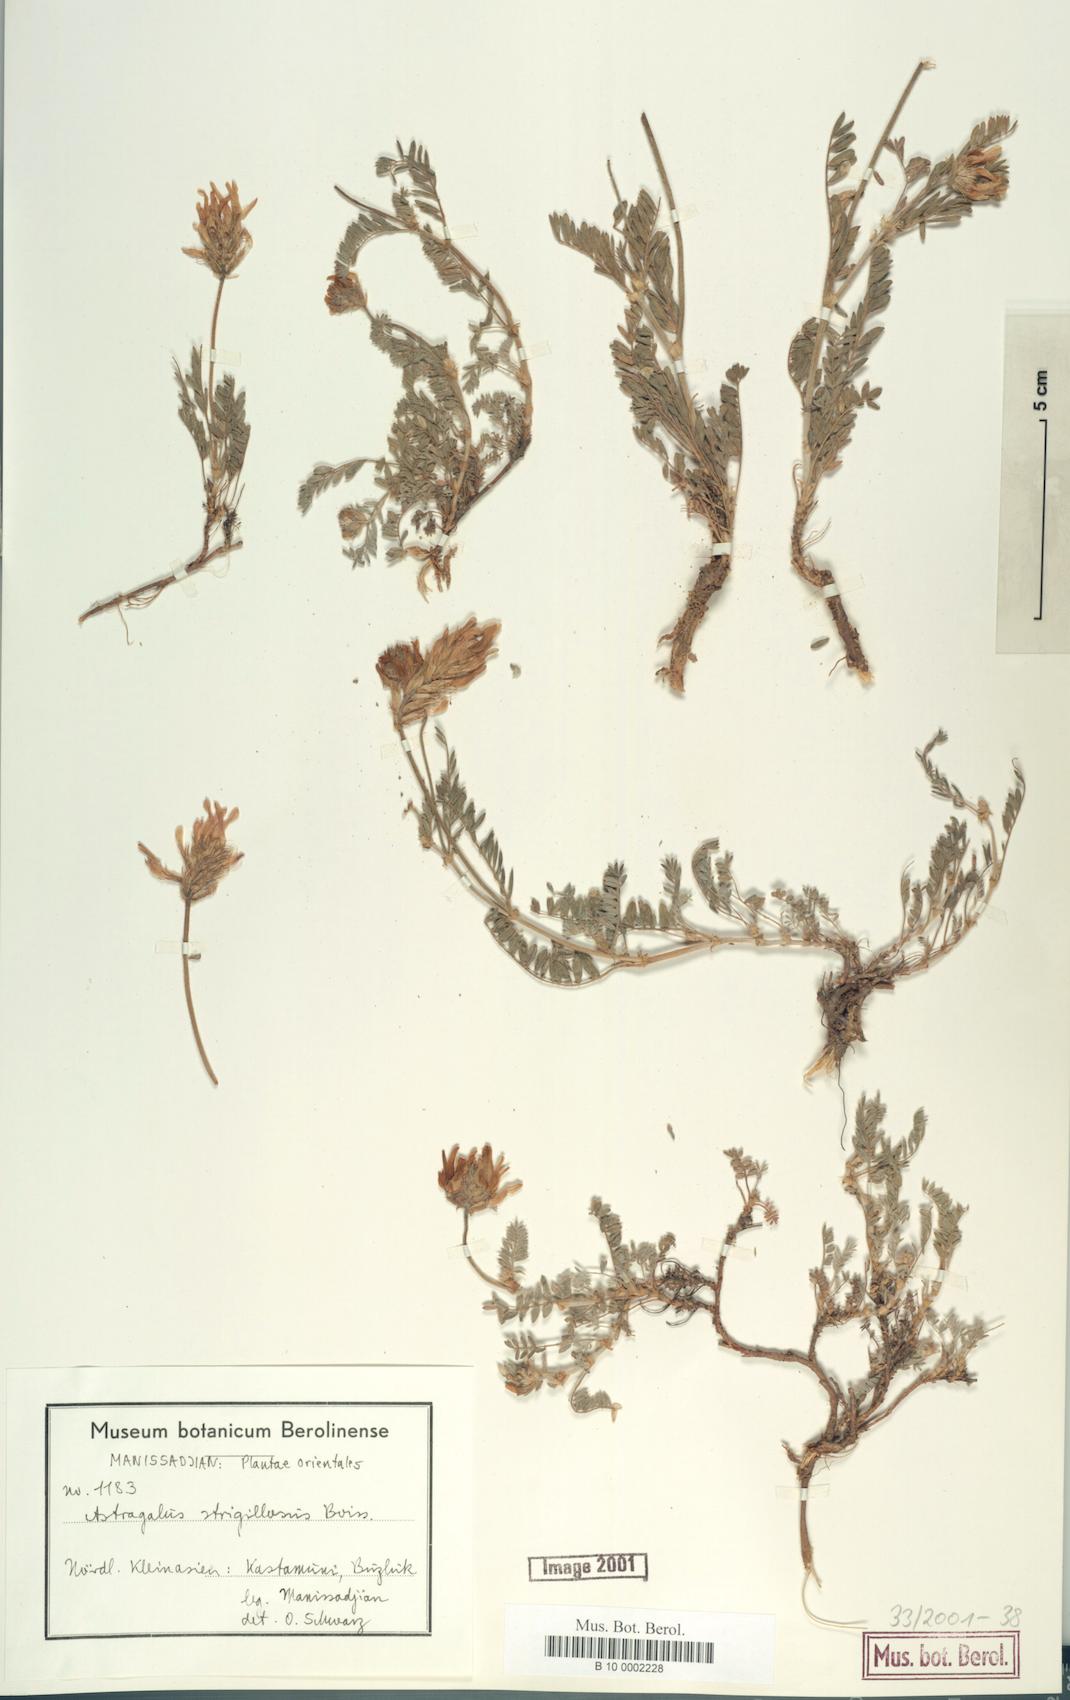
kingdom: Plantae
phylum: Tracheophyta
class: Magnoliopsida
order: Fabales
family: Fabaceae
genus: Astragalus
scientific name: Astragalus strigillosus
